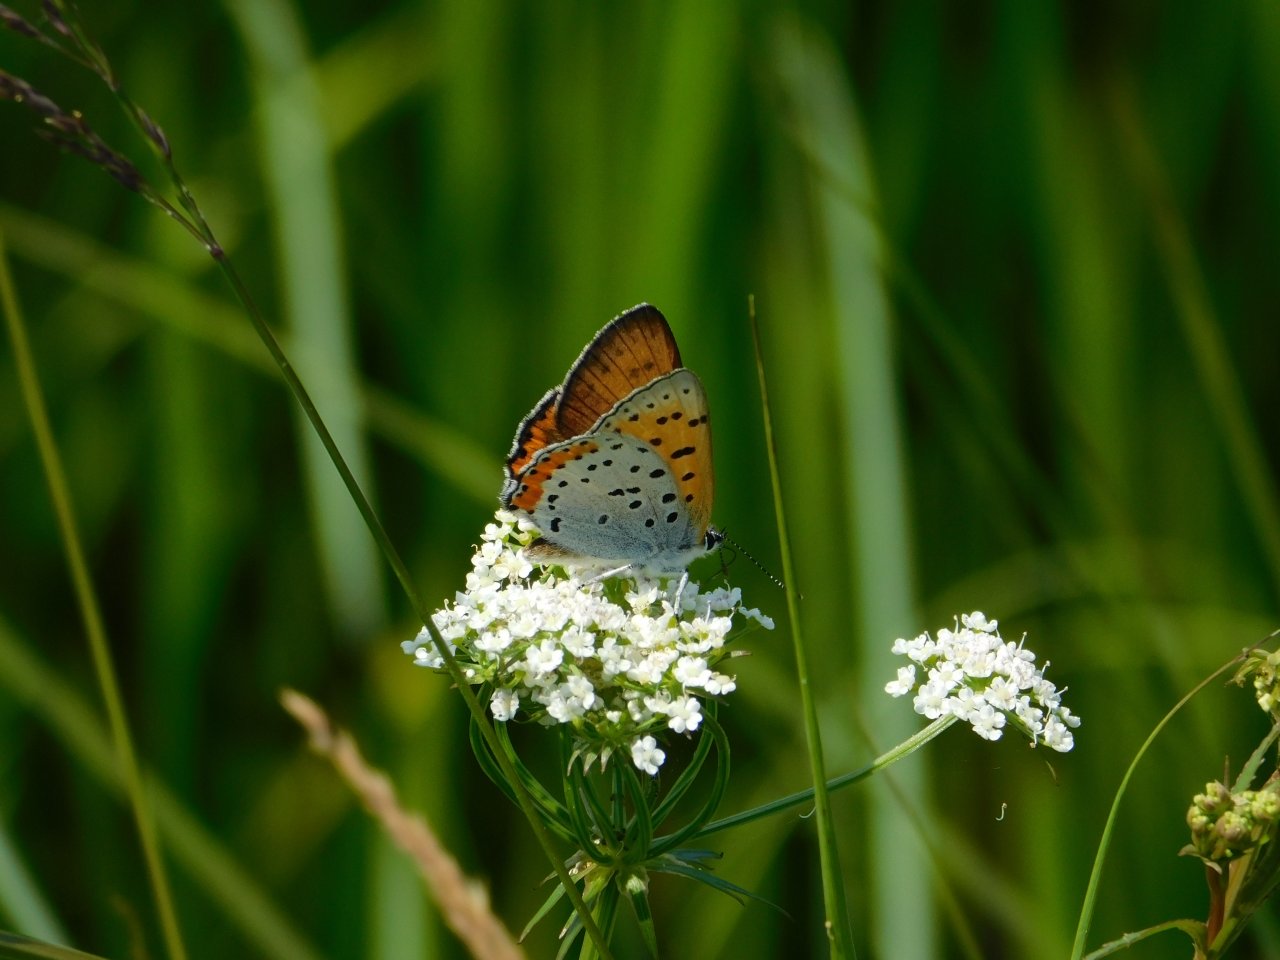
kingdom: Animalia
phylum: Arthropoda
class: Insecta
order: Lepidoptera
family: Sesiidae
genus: Sesia
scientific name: Sesia Lycaena hyllus
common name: Bronze Copper
